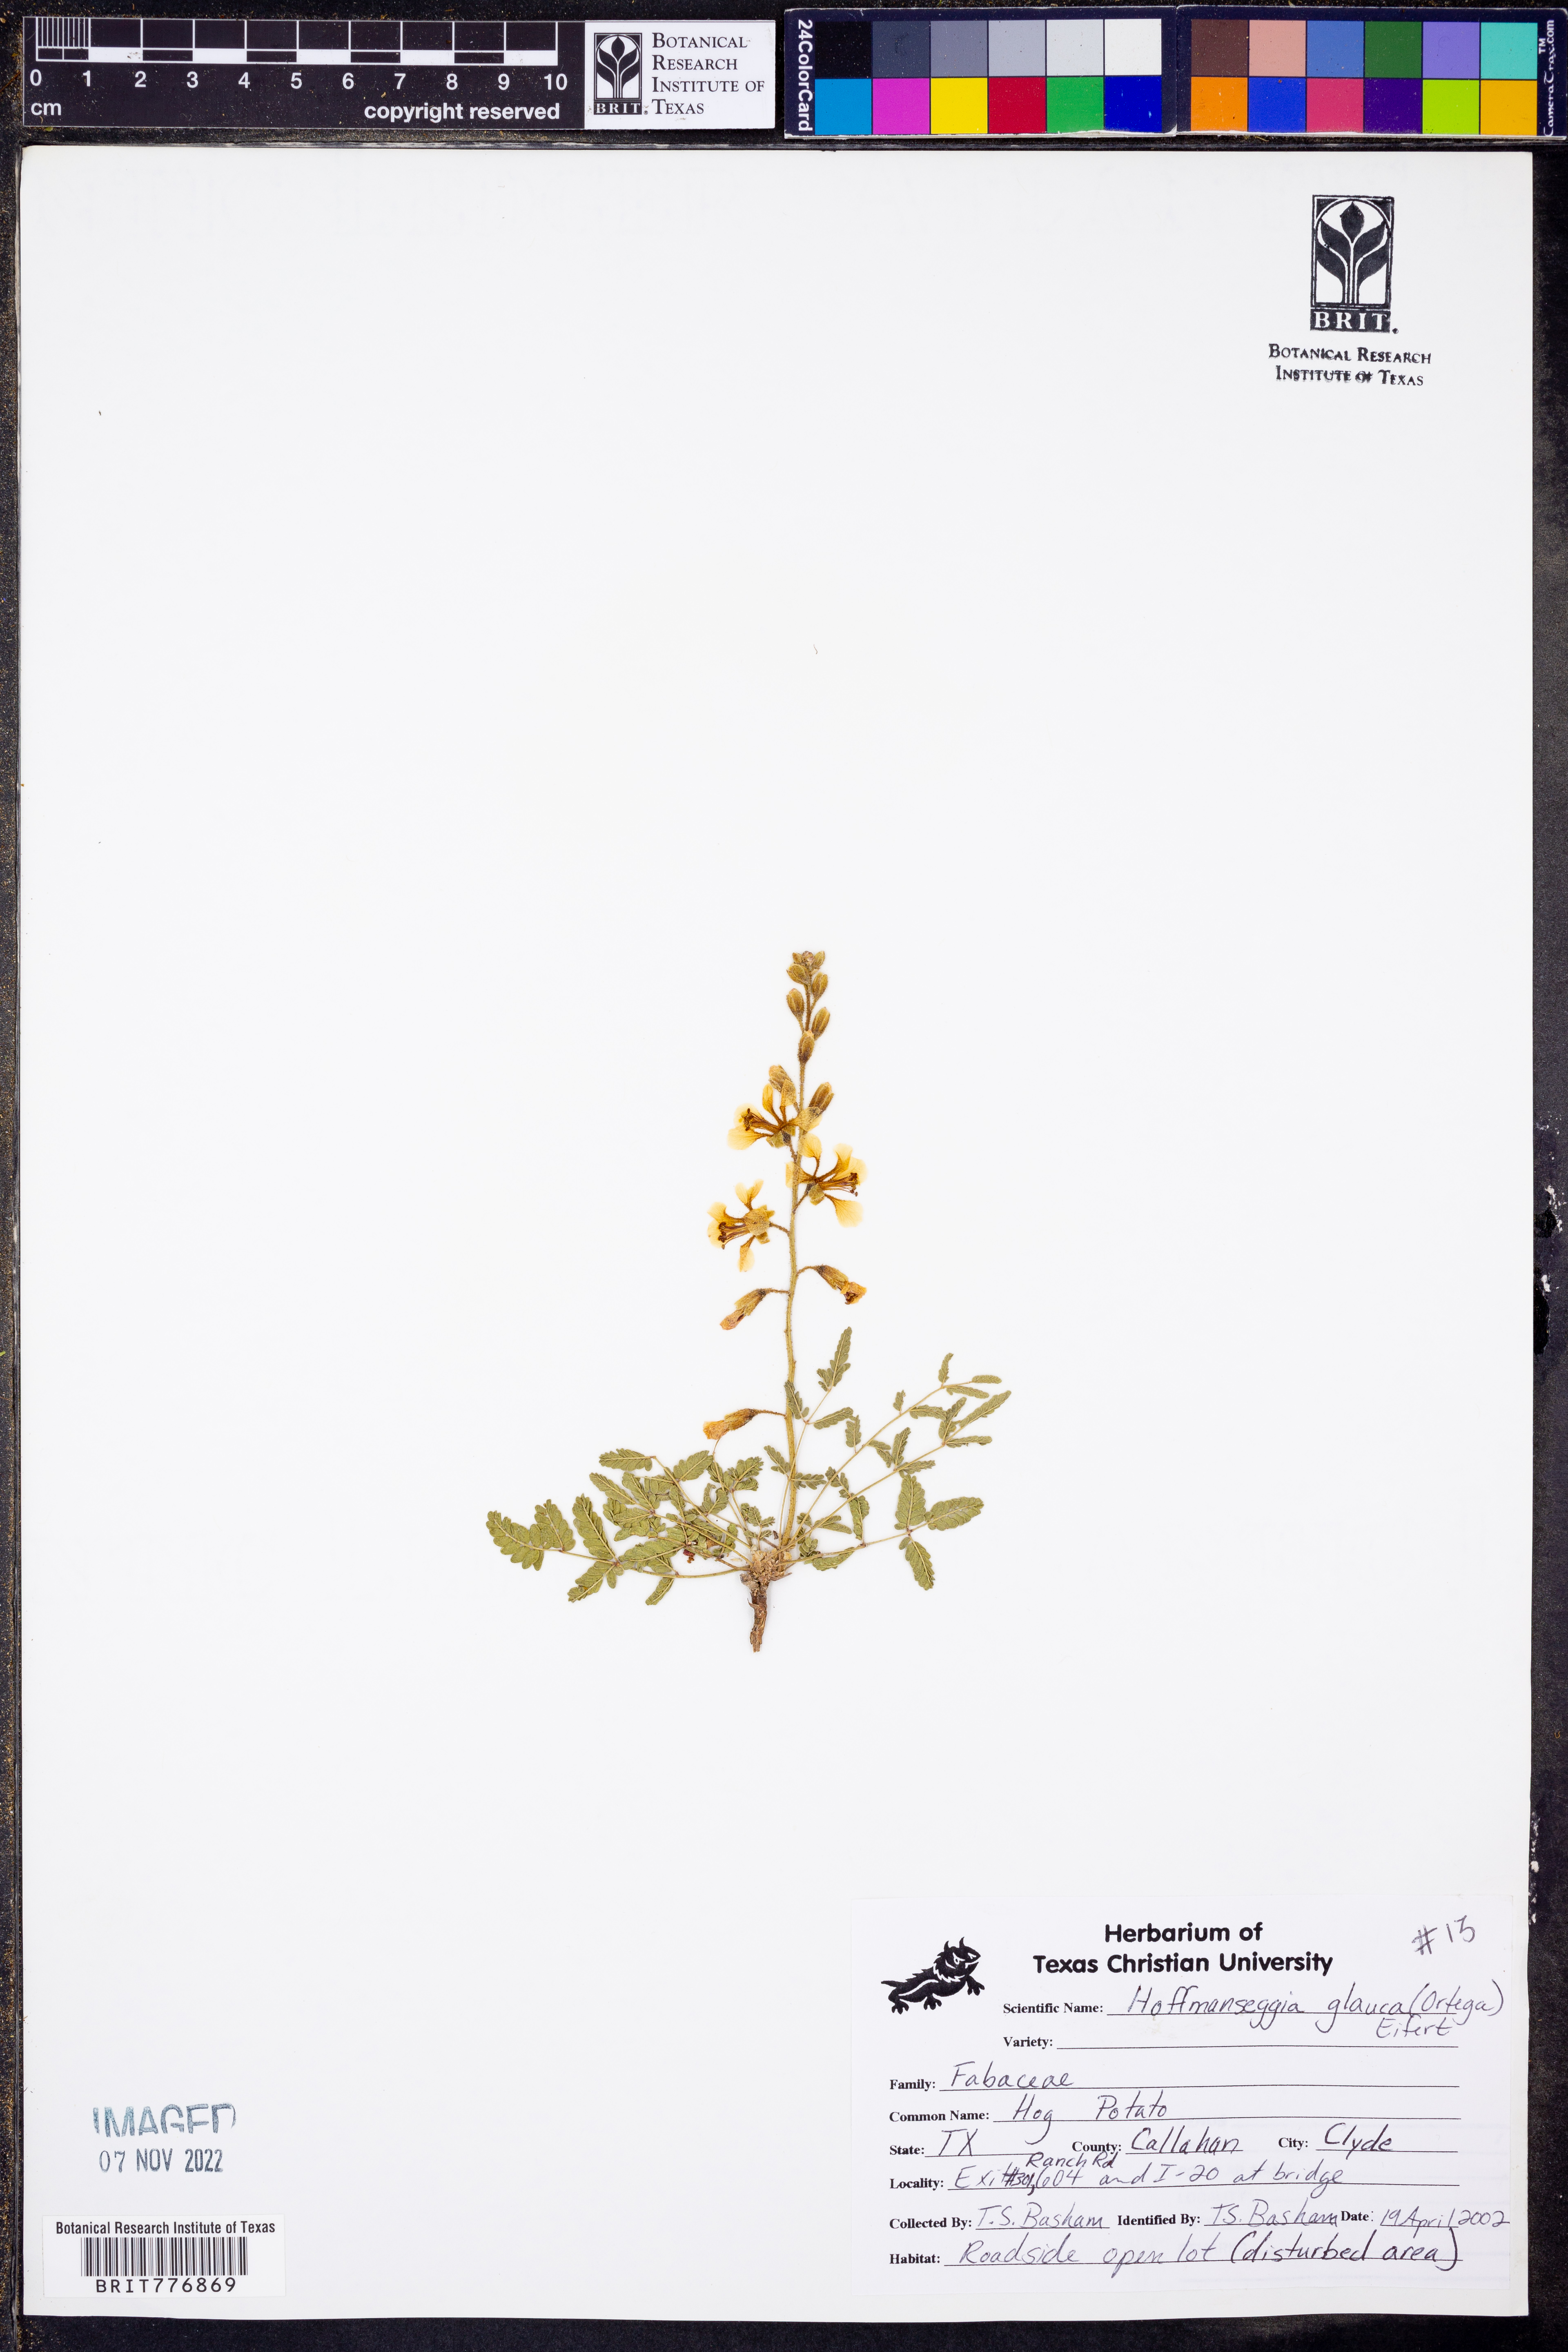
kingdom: Plantae
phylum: Tracheophyta
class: Magnoliopsida
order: Fabales
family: Fabaceae
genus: Hoffmannseggia
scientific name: Hoffmannseggia glauca
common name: Pignut
